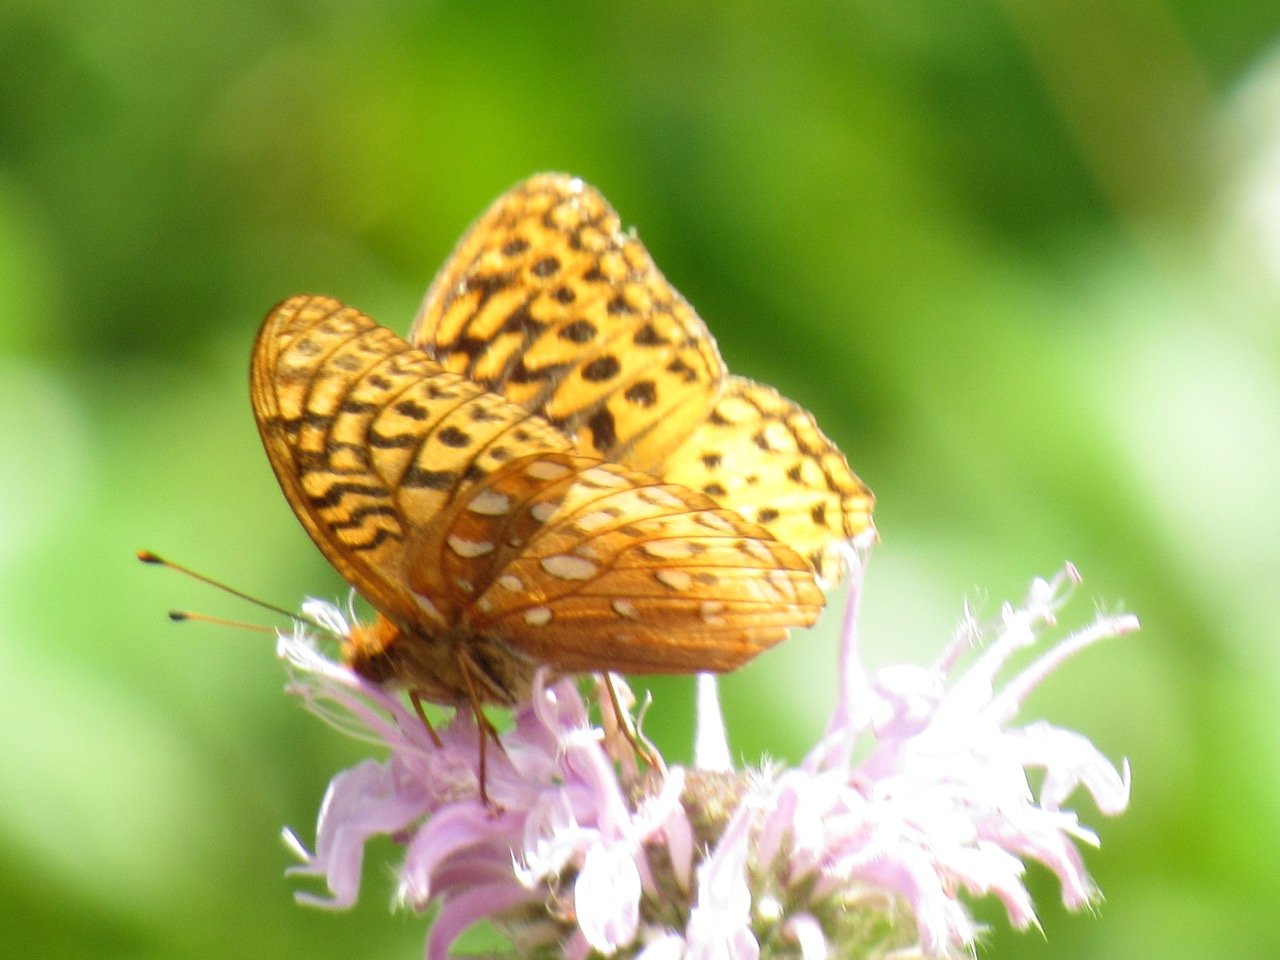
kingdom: Animalia
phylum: Arthropoda
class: Insecta
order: Lepidoptera
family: Nymphalidae
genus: Speyeria
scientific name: Speyeria cybele
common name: Great Spangled Fritillary
